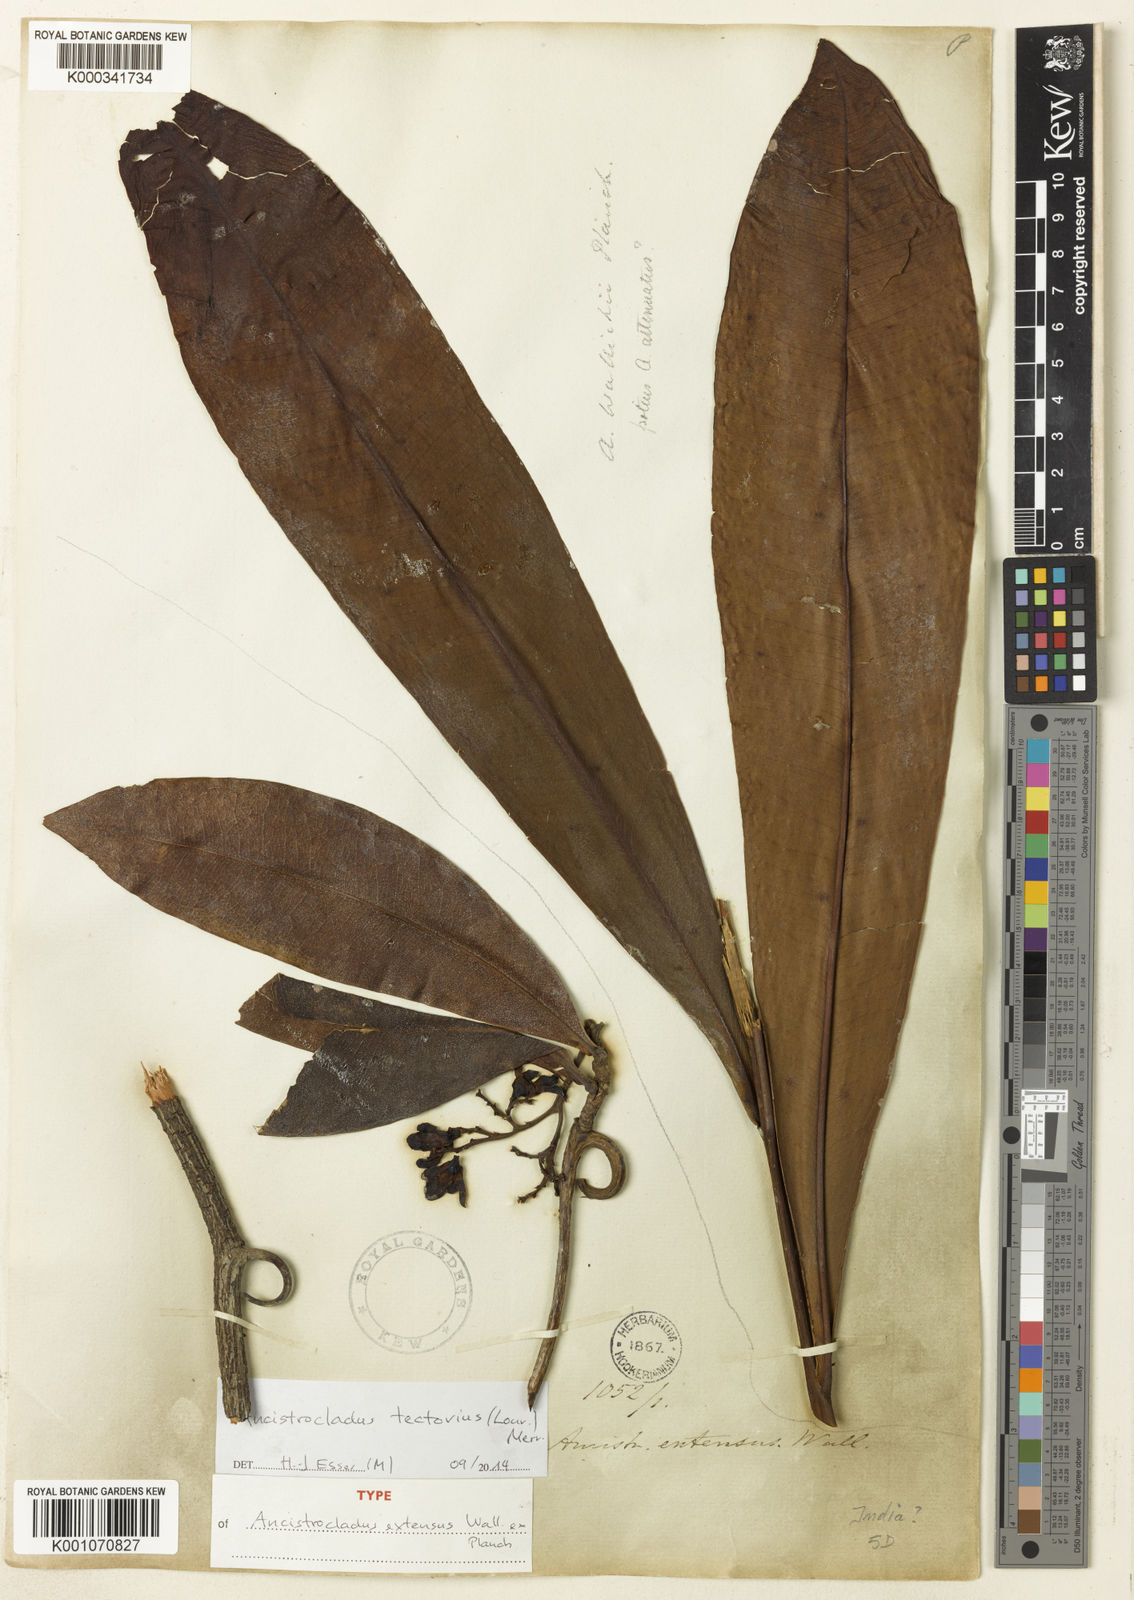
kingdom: Plantae
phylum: Tracheophyta
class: Magnoliopsida
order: Caryophyllales
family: Ancistrocladaceae
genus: Ancistrocladus
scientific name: Ancistrocladus tectorius
